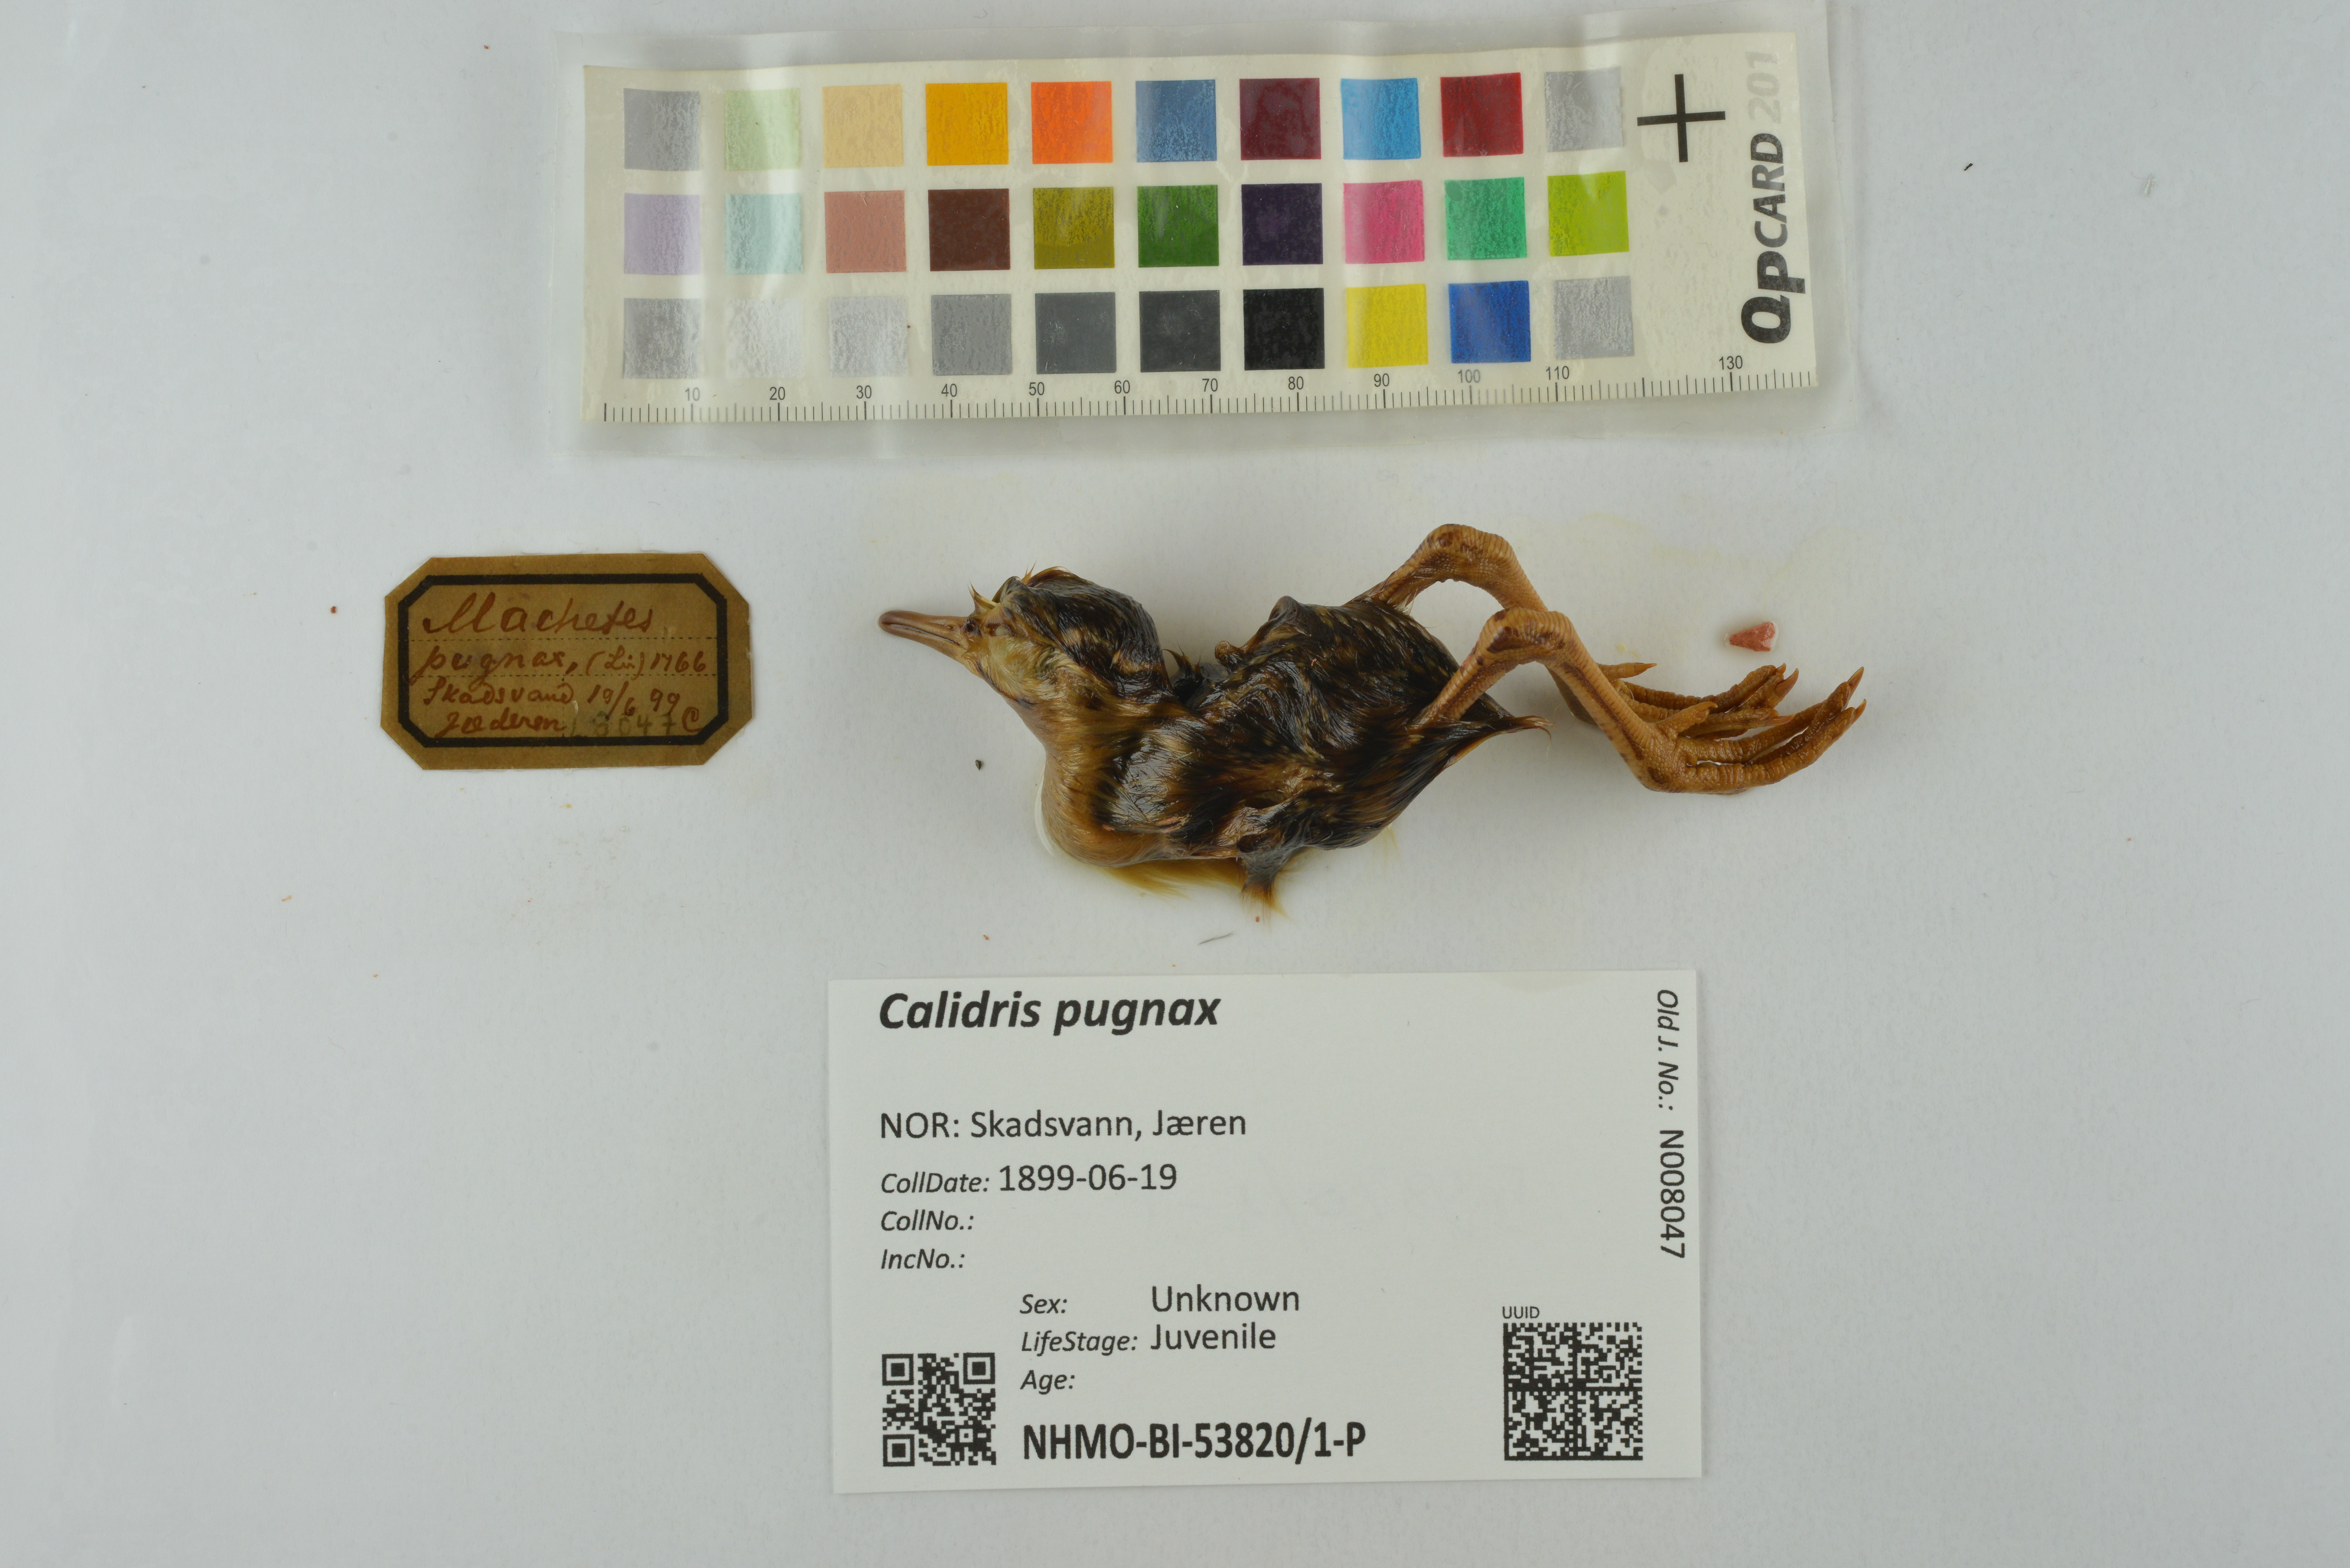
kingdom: Animalia
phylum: Chordata
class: Aves
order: Charadriiformes
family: Scolopacidae
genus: Calidris
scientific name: Calidris pugnax
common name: Ruff
